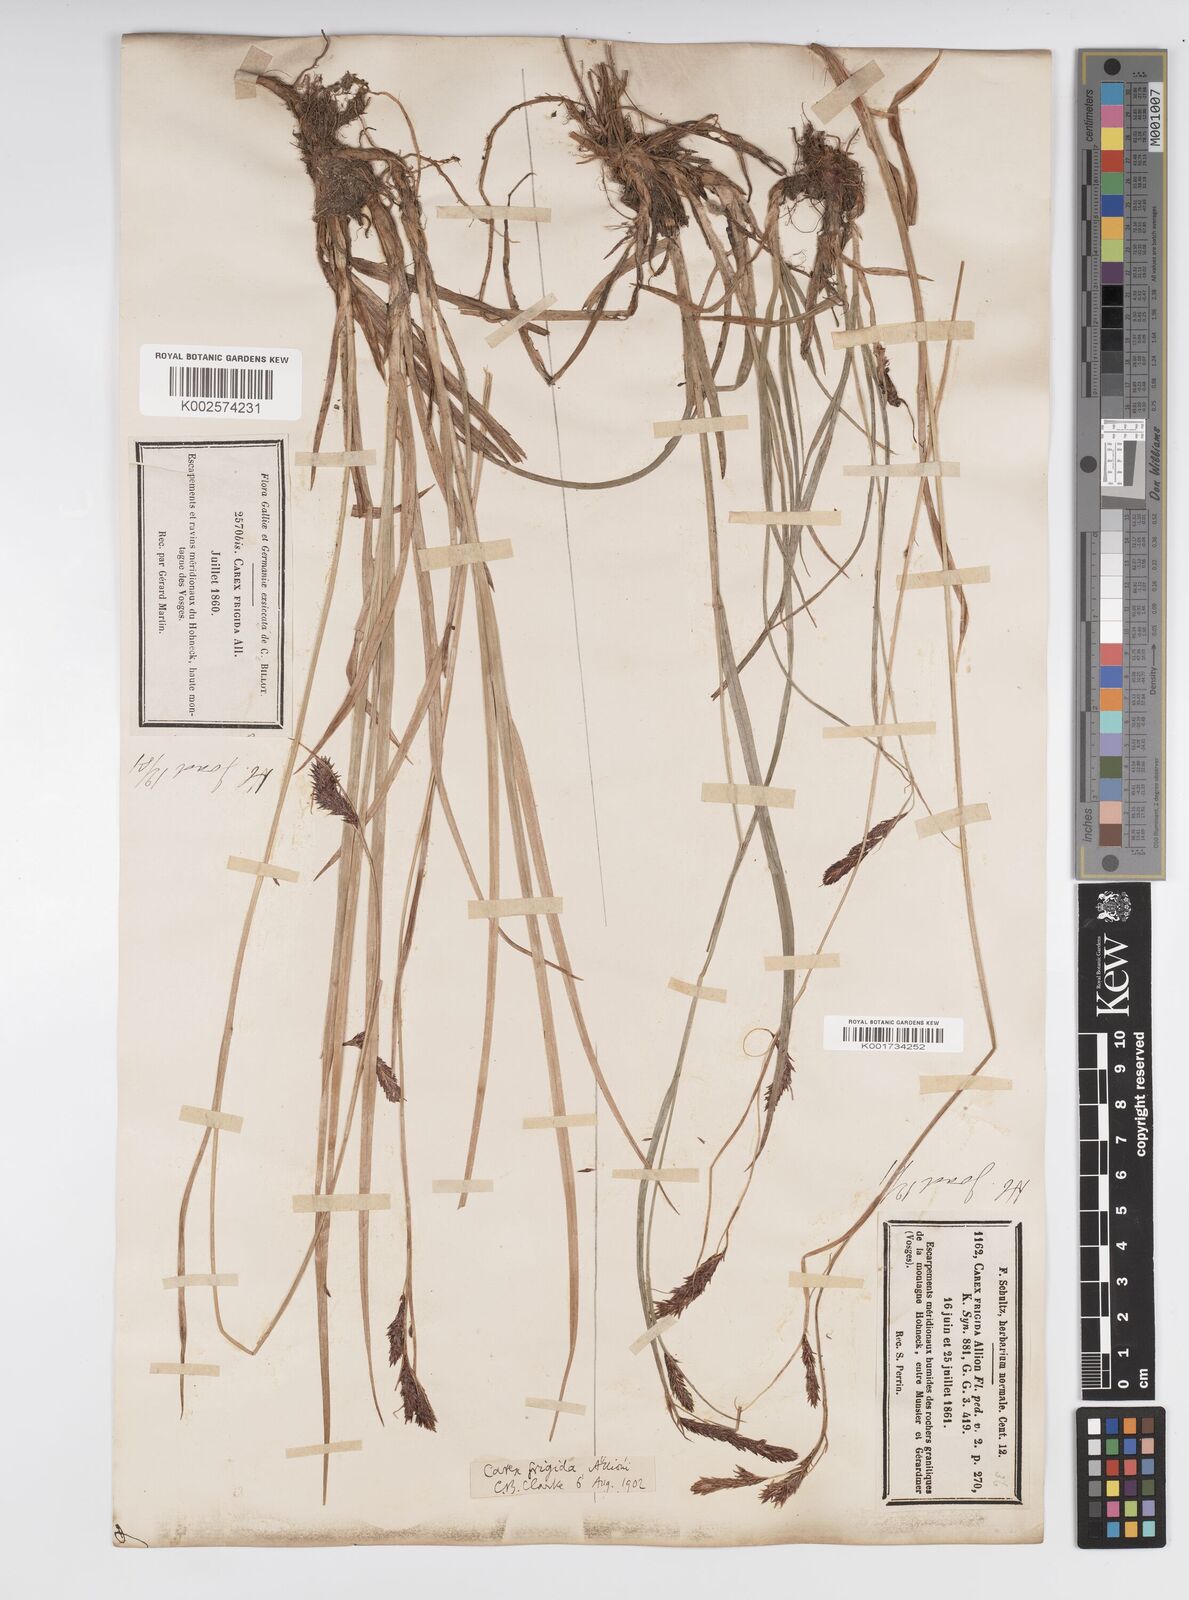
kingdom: Plantae
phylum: Tracheophyta
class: Liliopsida
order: Poales
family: Cyperaceae
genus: Carex
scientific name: Carex frigida
